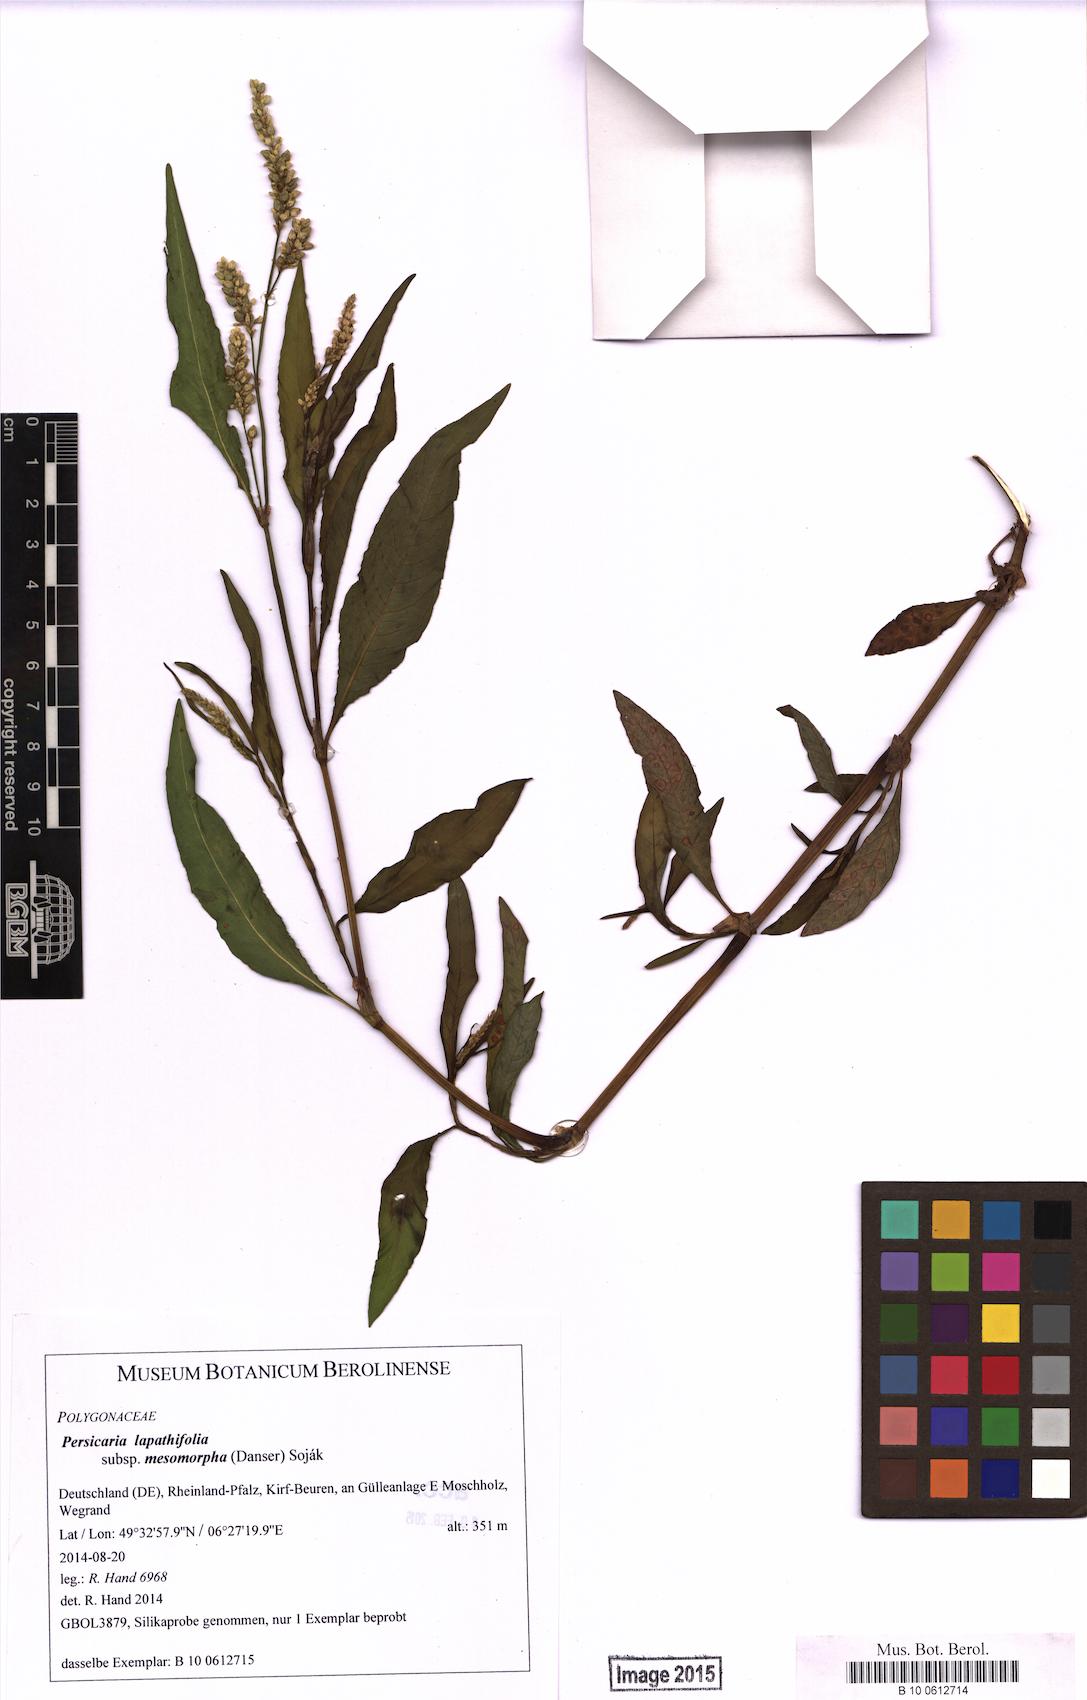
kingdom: Plantae
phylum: Tracheophyta
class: Magnoliopsida
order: Caryophyllales
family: Polygonaceae
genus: Persicaria
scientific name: Persicaria lapathifolia
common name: Curlytop knotweed
